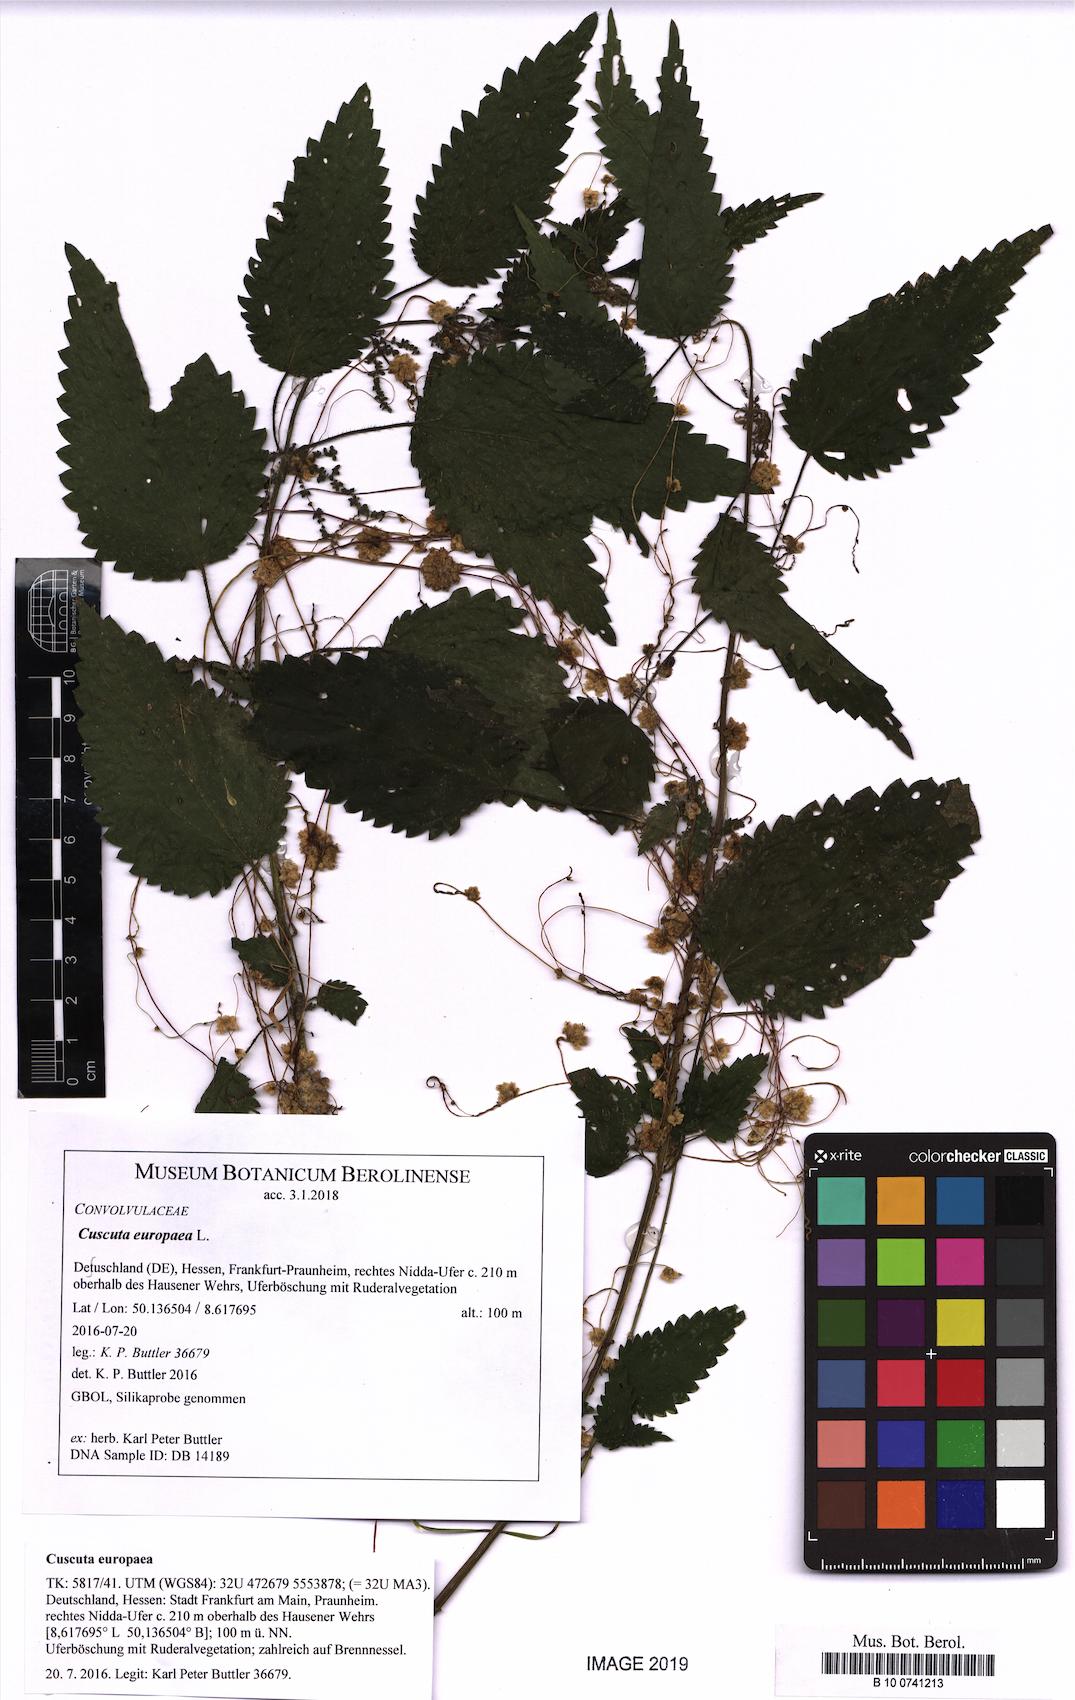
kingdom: Plantae
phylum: Tracheophyta
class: Magnoliopsida
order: Solanales
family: Convolvulaceae
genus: Cuscuta
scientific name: Cuscuta europaea
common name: Greater dodder
